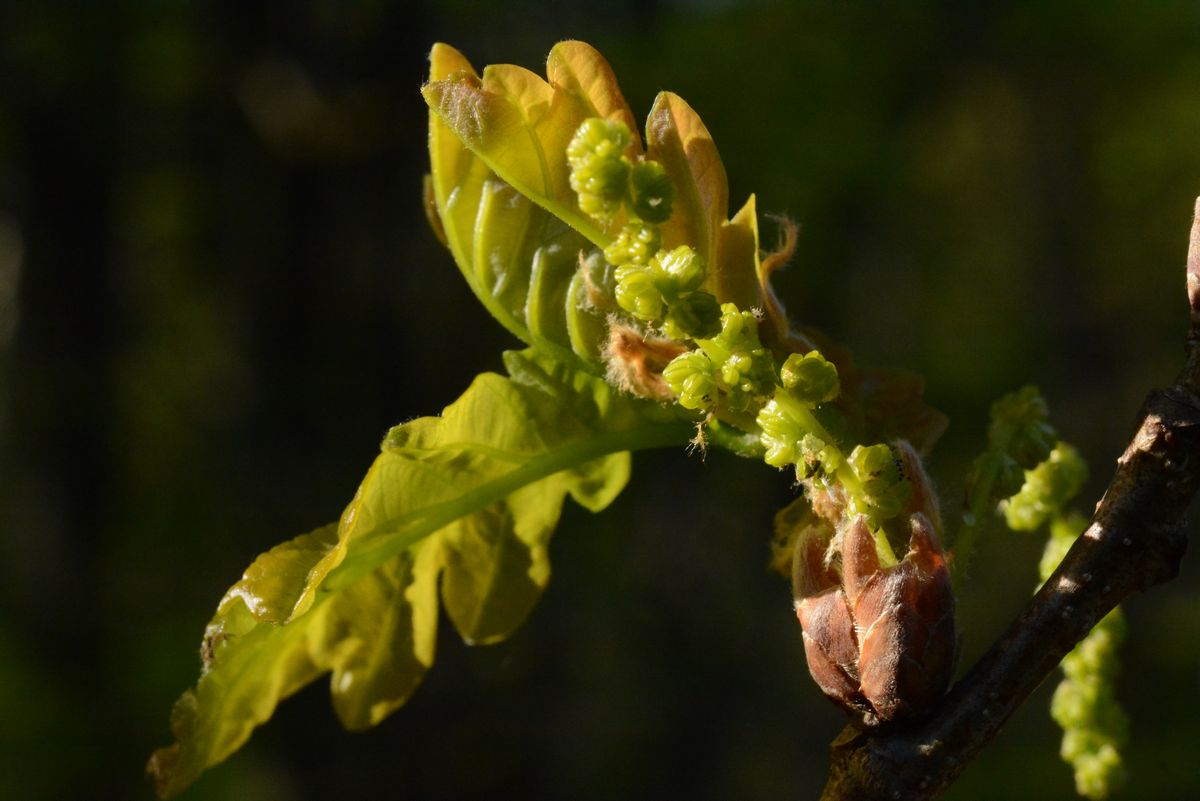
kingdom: Plantae
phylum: Tracheophyta
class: Magnoliopsida
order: Fagales
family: Fagaceae
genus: Quercus
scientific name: Quercus robur
